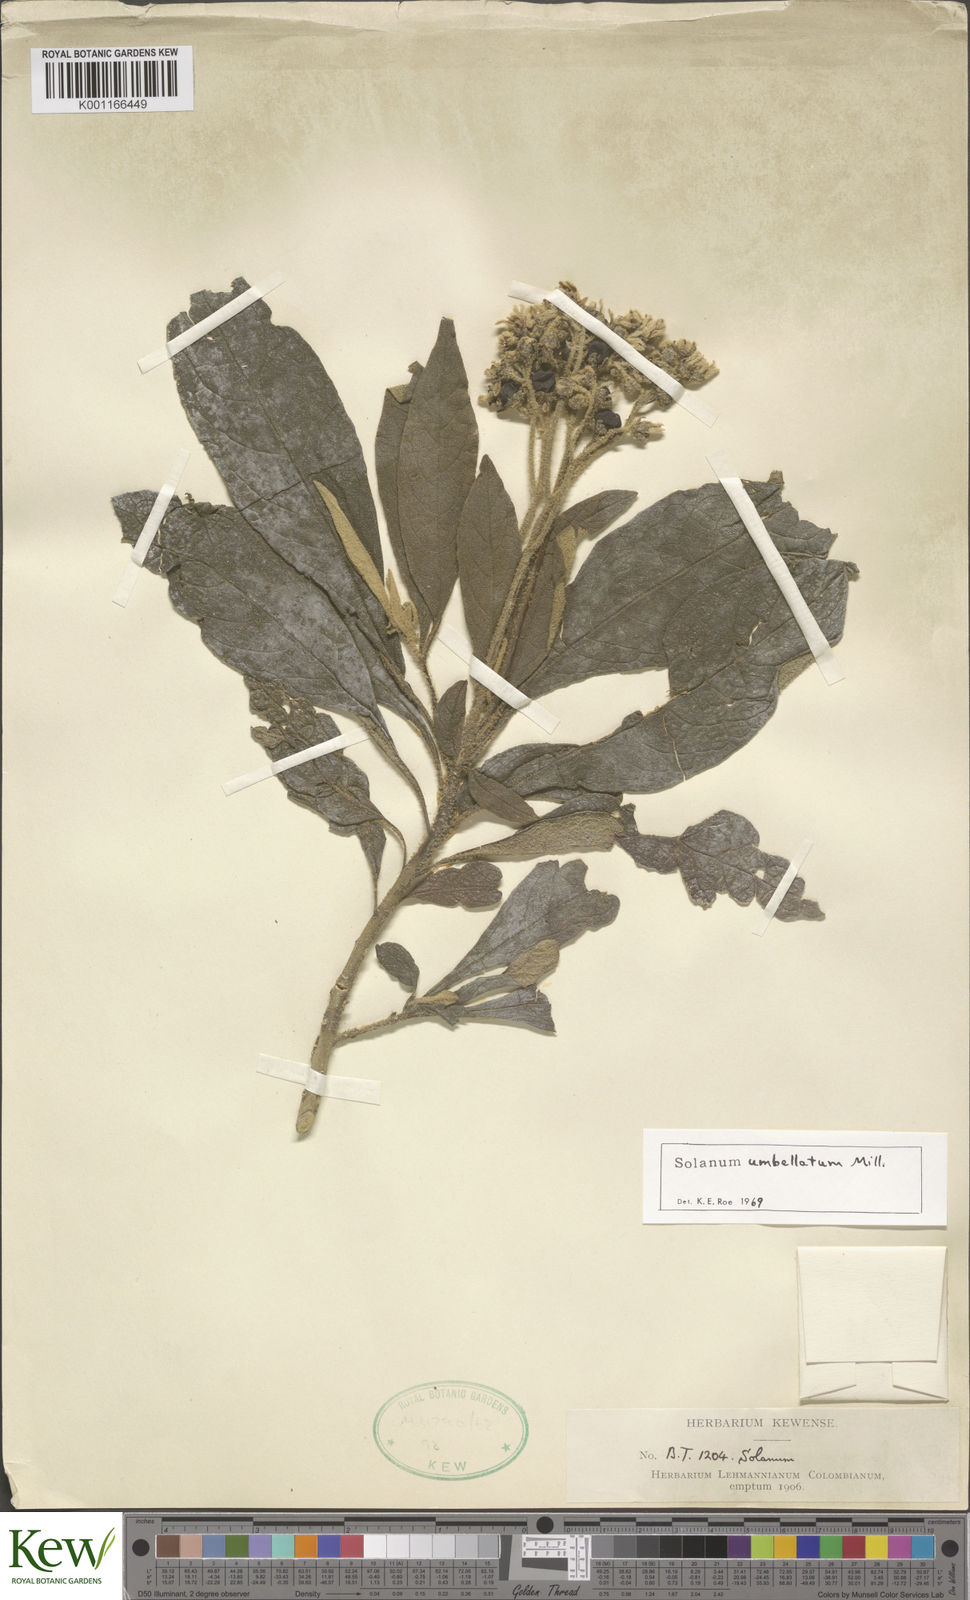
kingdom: Plantae
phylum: Tracheophyta
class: Magnoliopsida
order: Solanales
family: Solanaceae
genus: Solanum
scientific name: Solanum umbellatum
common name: Nightshade
